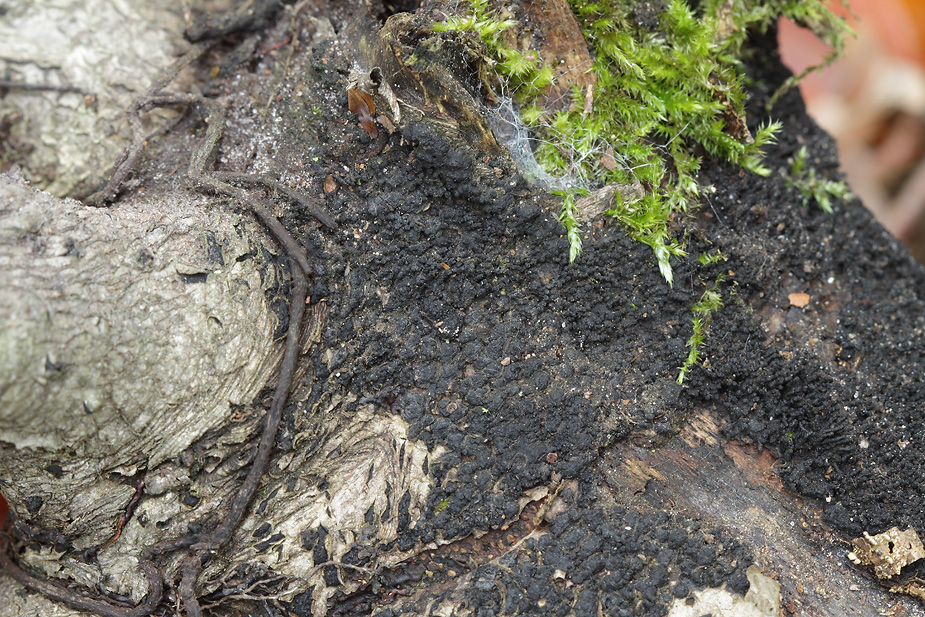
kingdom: Fungi
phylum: Ascomycota
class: Sordariomycetes
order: Xylariales
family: Melogrammataceae
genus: Melogramma
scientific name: Melogramma spiniferum
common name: bøgefod-kulhals
